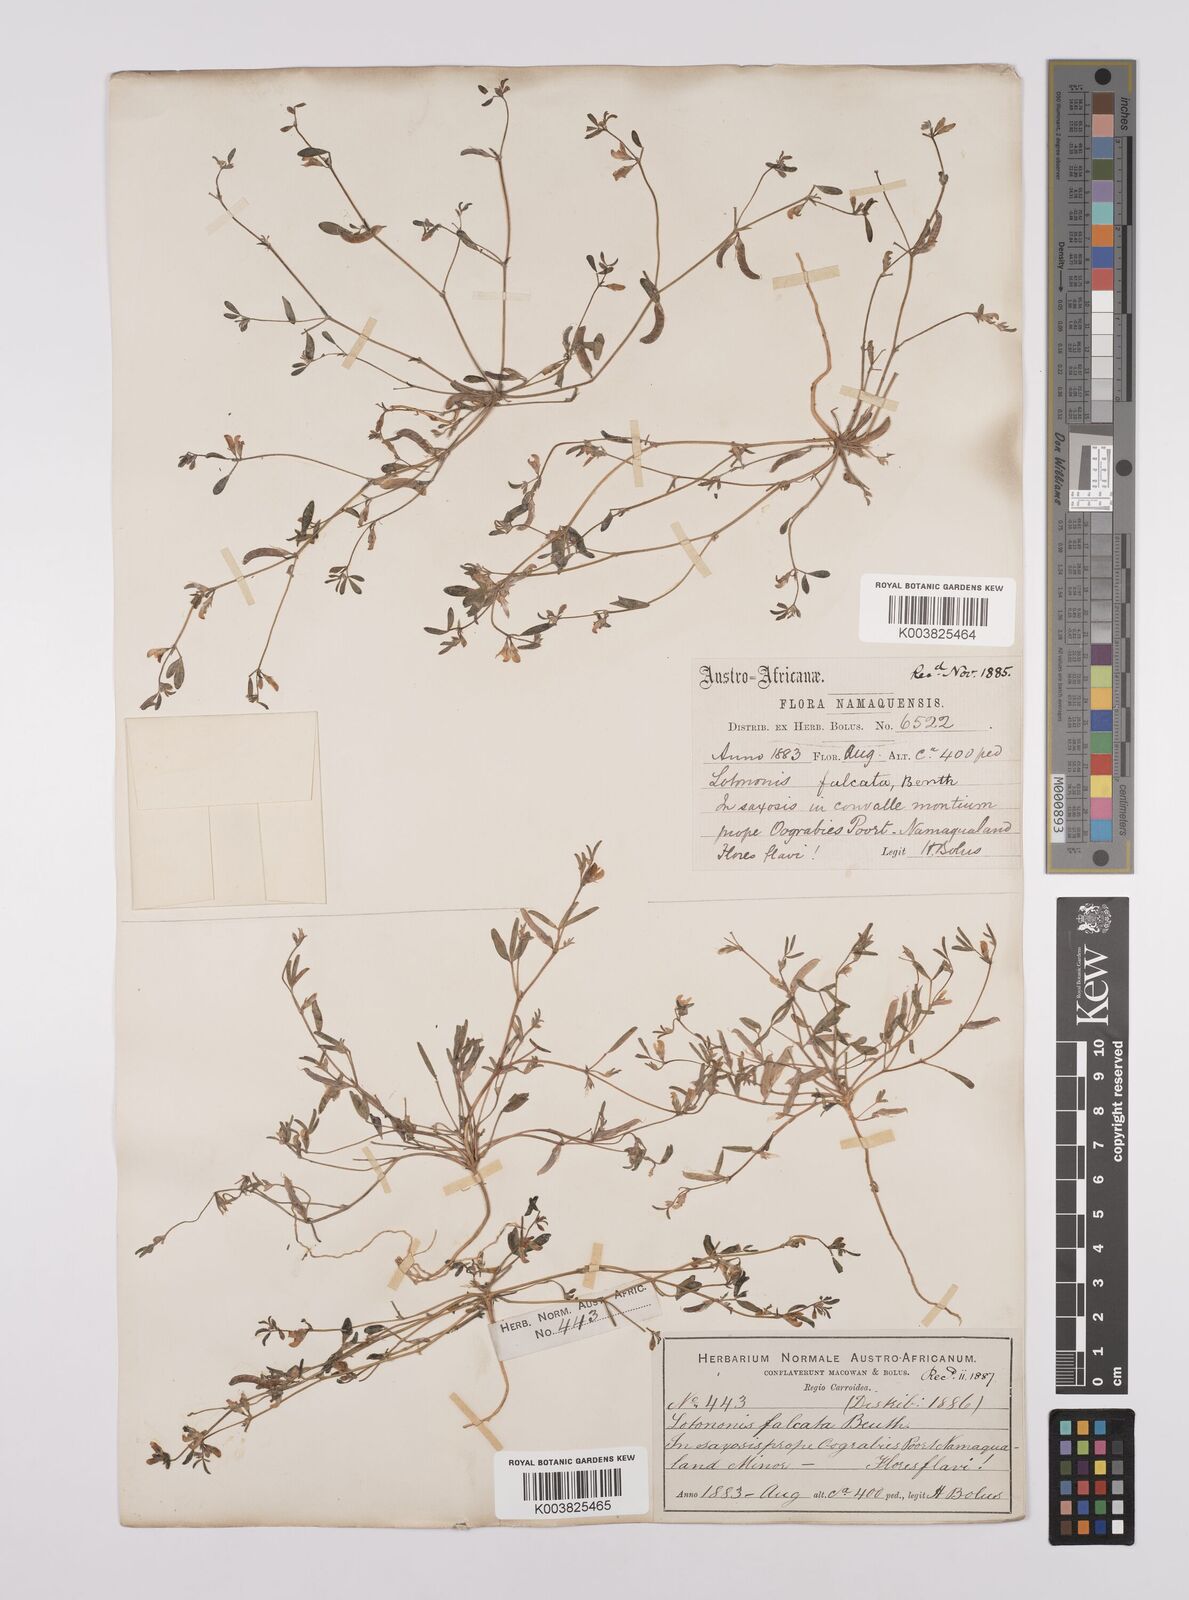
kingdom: Plantae
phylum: Tracheophyta
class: Magnoliopsida
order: Fabales
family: Fabaceae
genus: Lotononis
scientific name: Lotononis falcata
